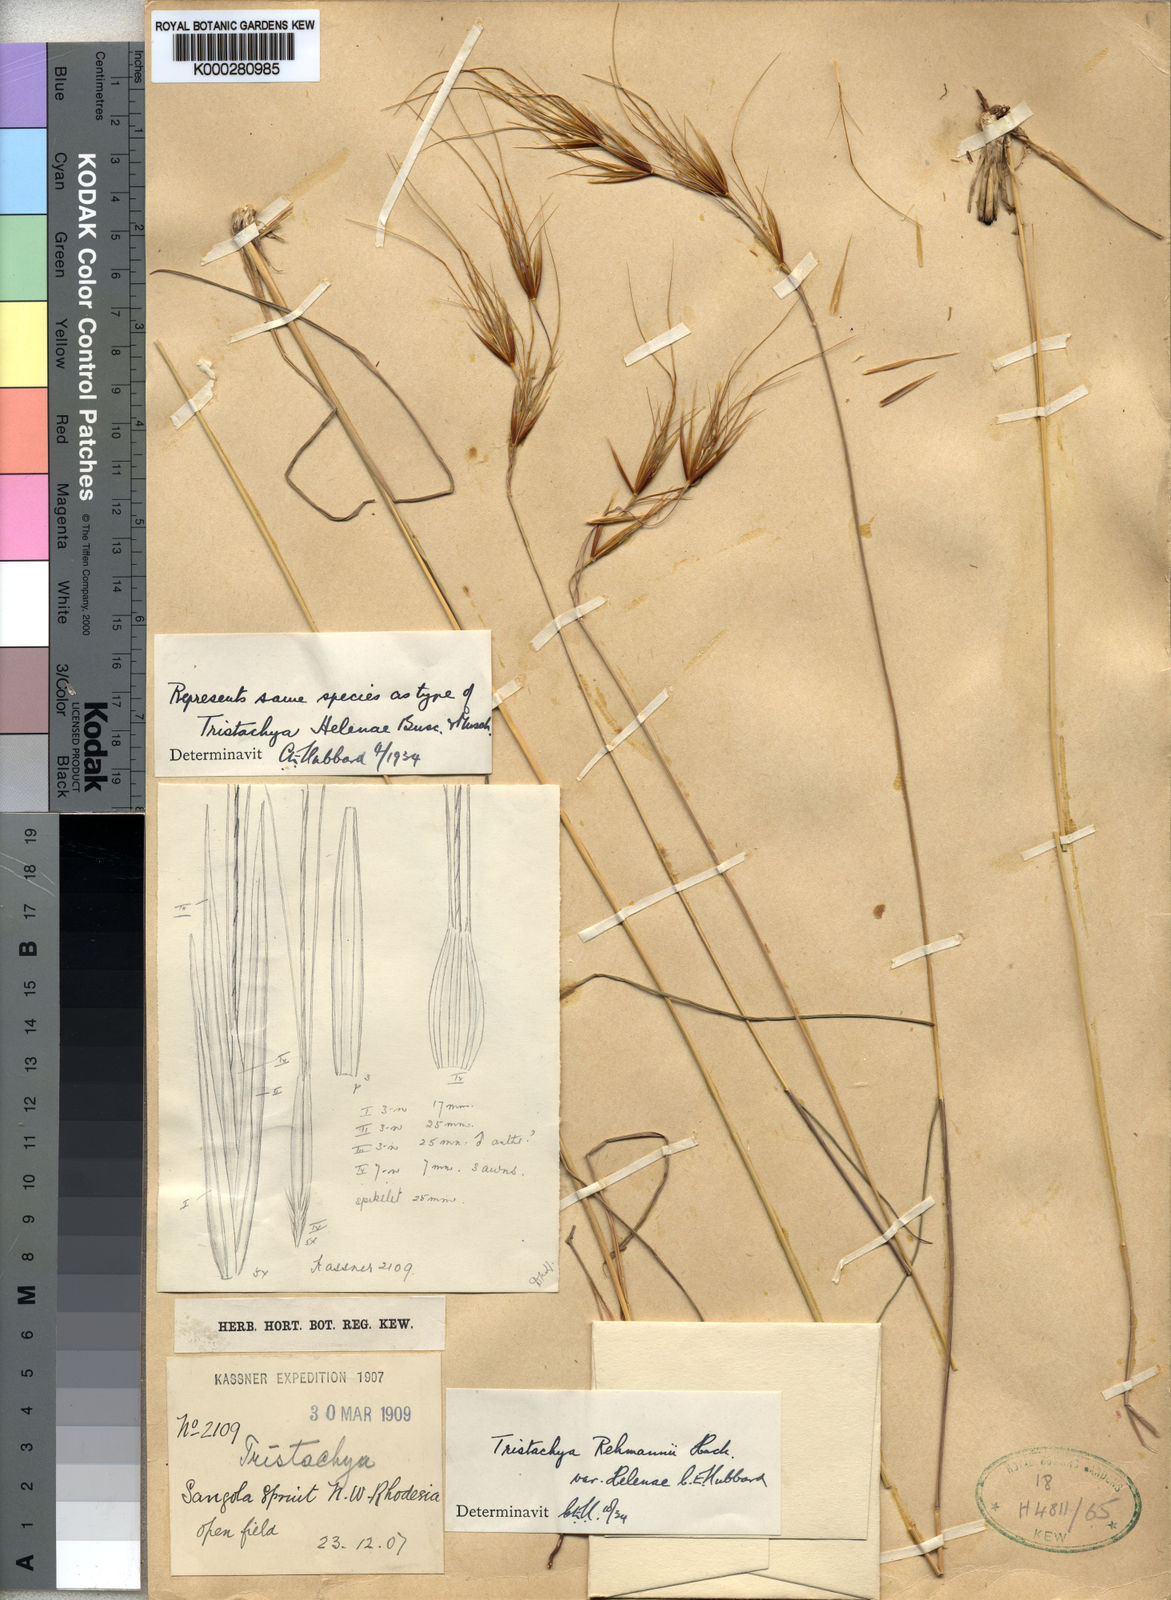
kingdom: Plantae
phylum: Tracheophyta
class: Liliopsida
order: Poales
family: Poaceae
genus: Tristachya
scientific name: Tristachya
